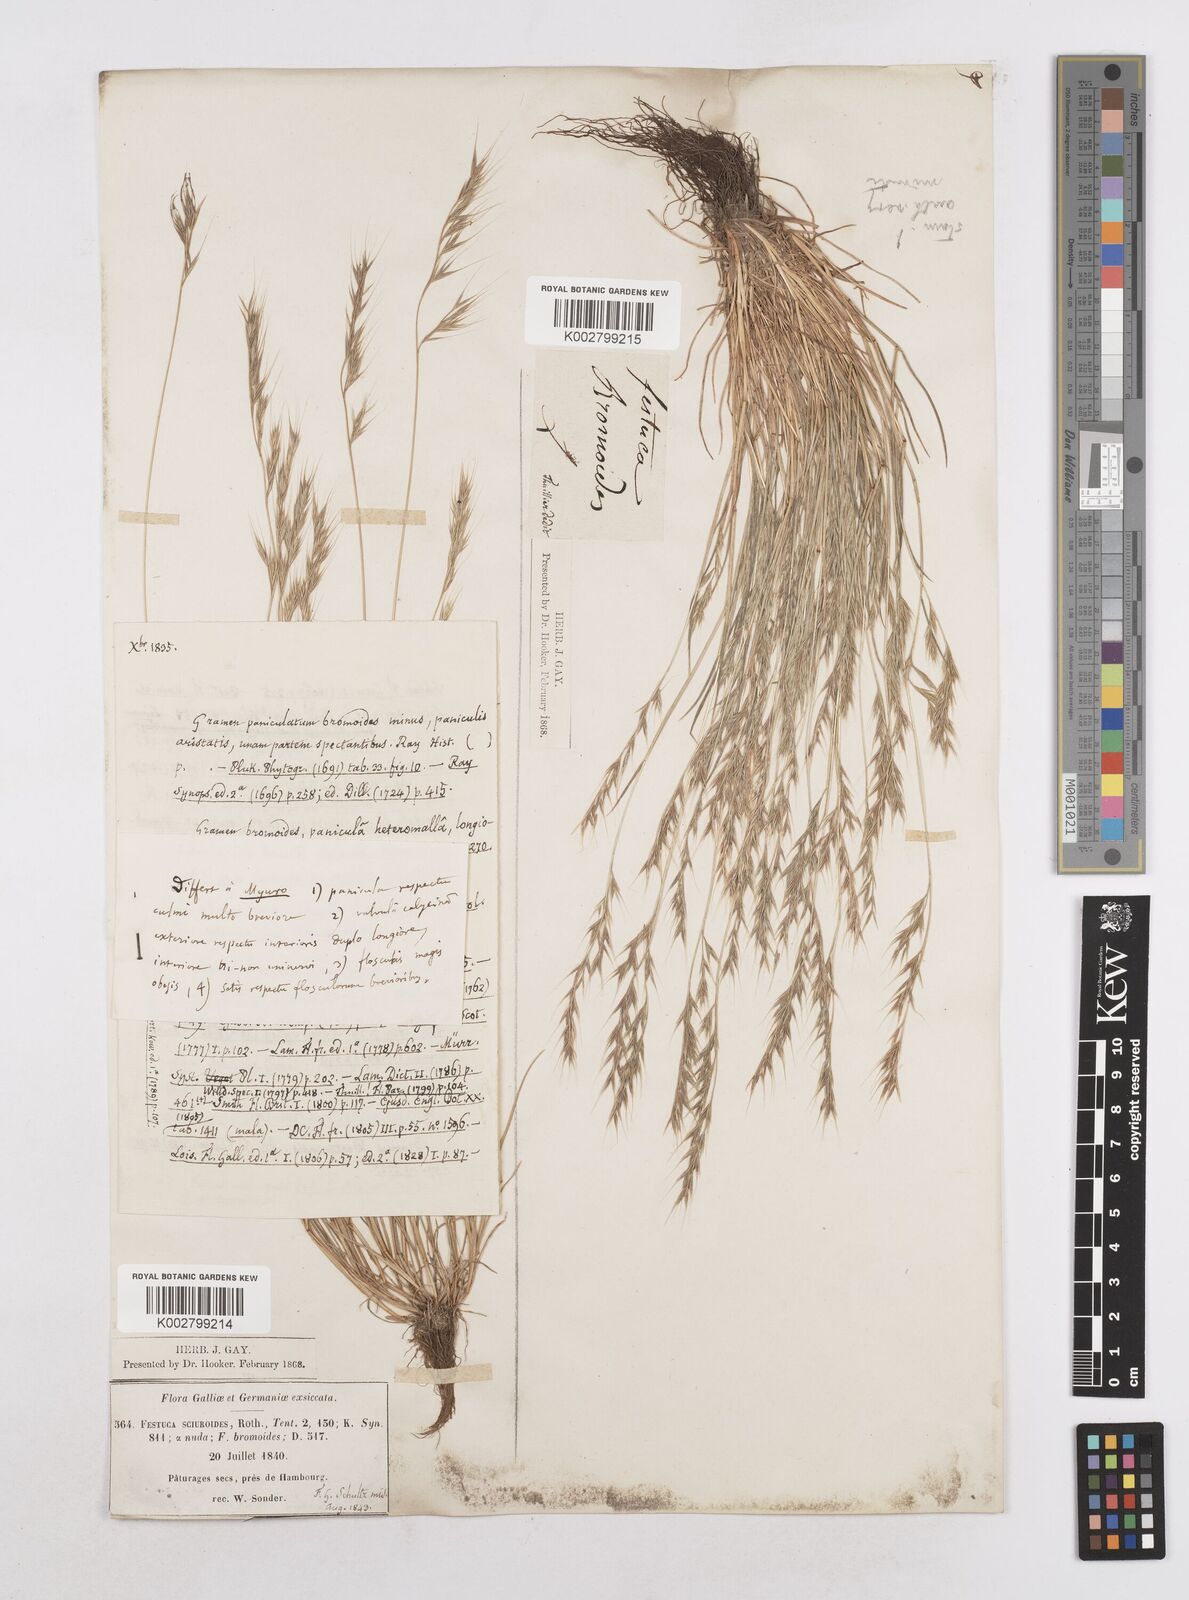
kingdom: Plantae
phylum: Tracheophyta
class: Liliopsida
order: Poales
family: Poaceae
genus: Festuca
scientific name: Festuca bromoides
